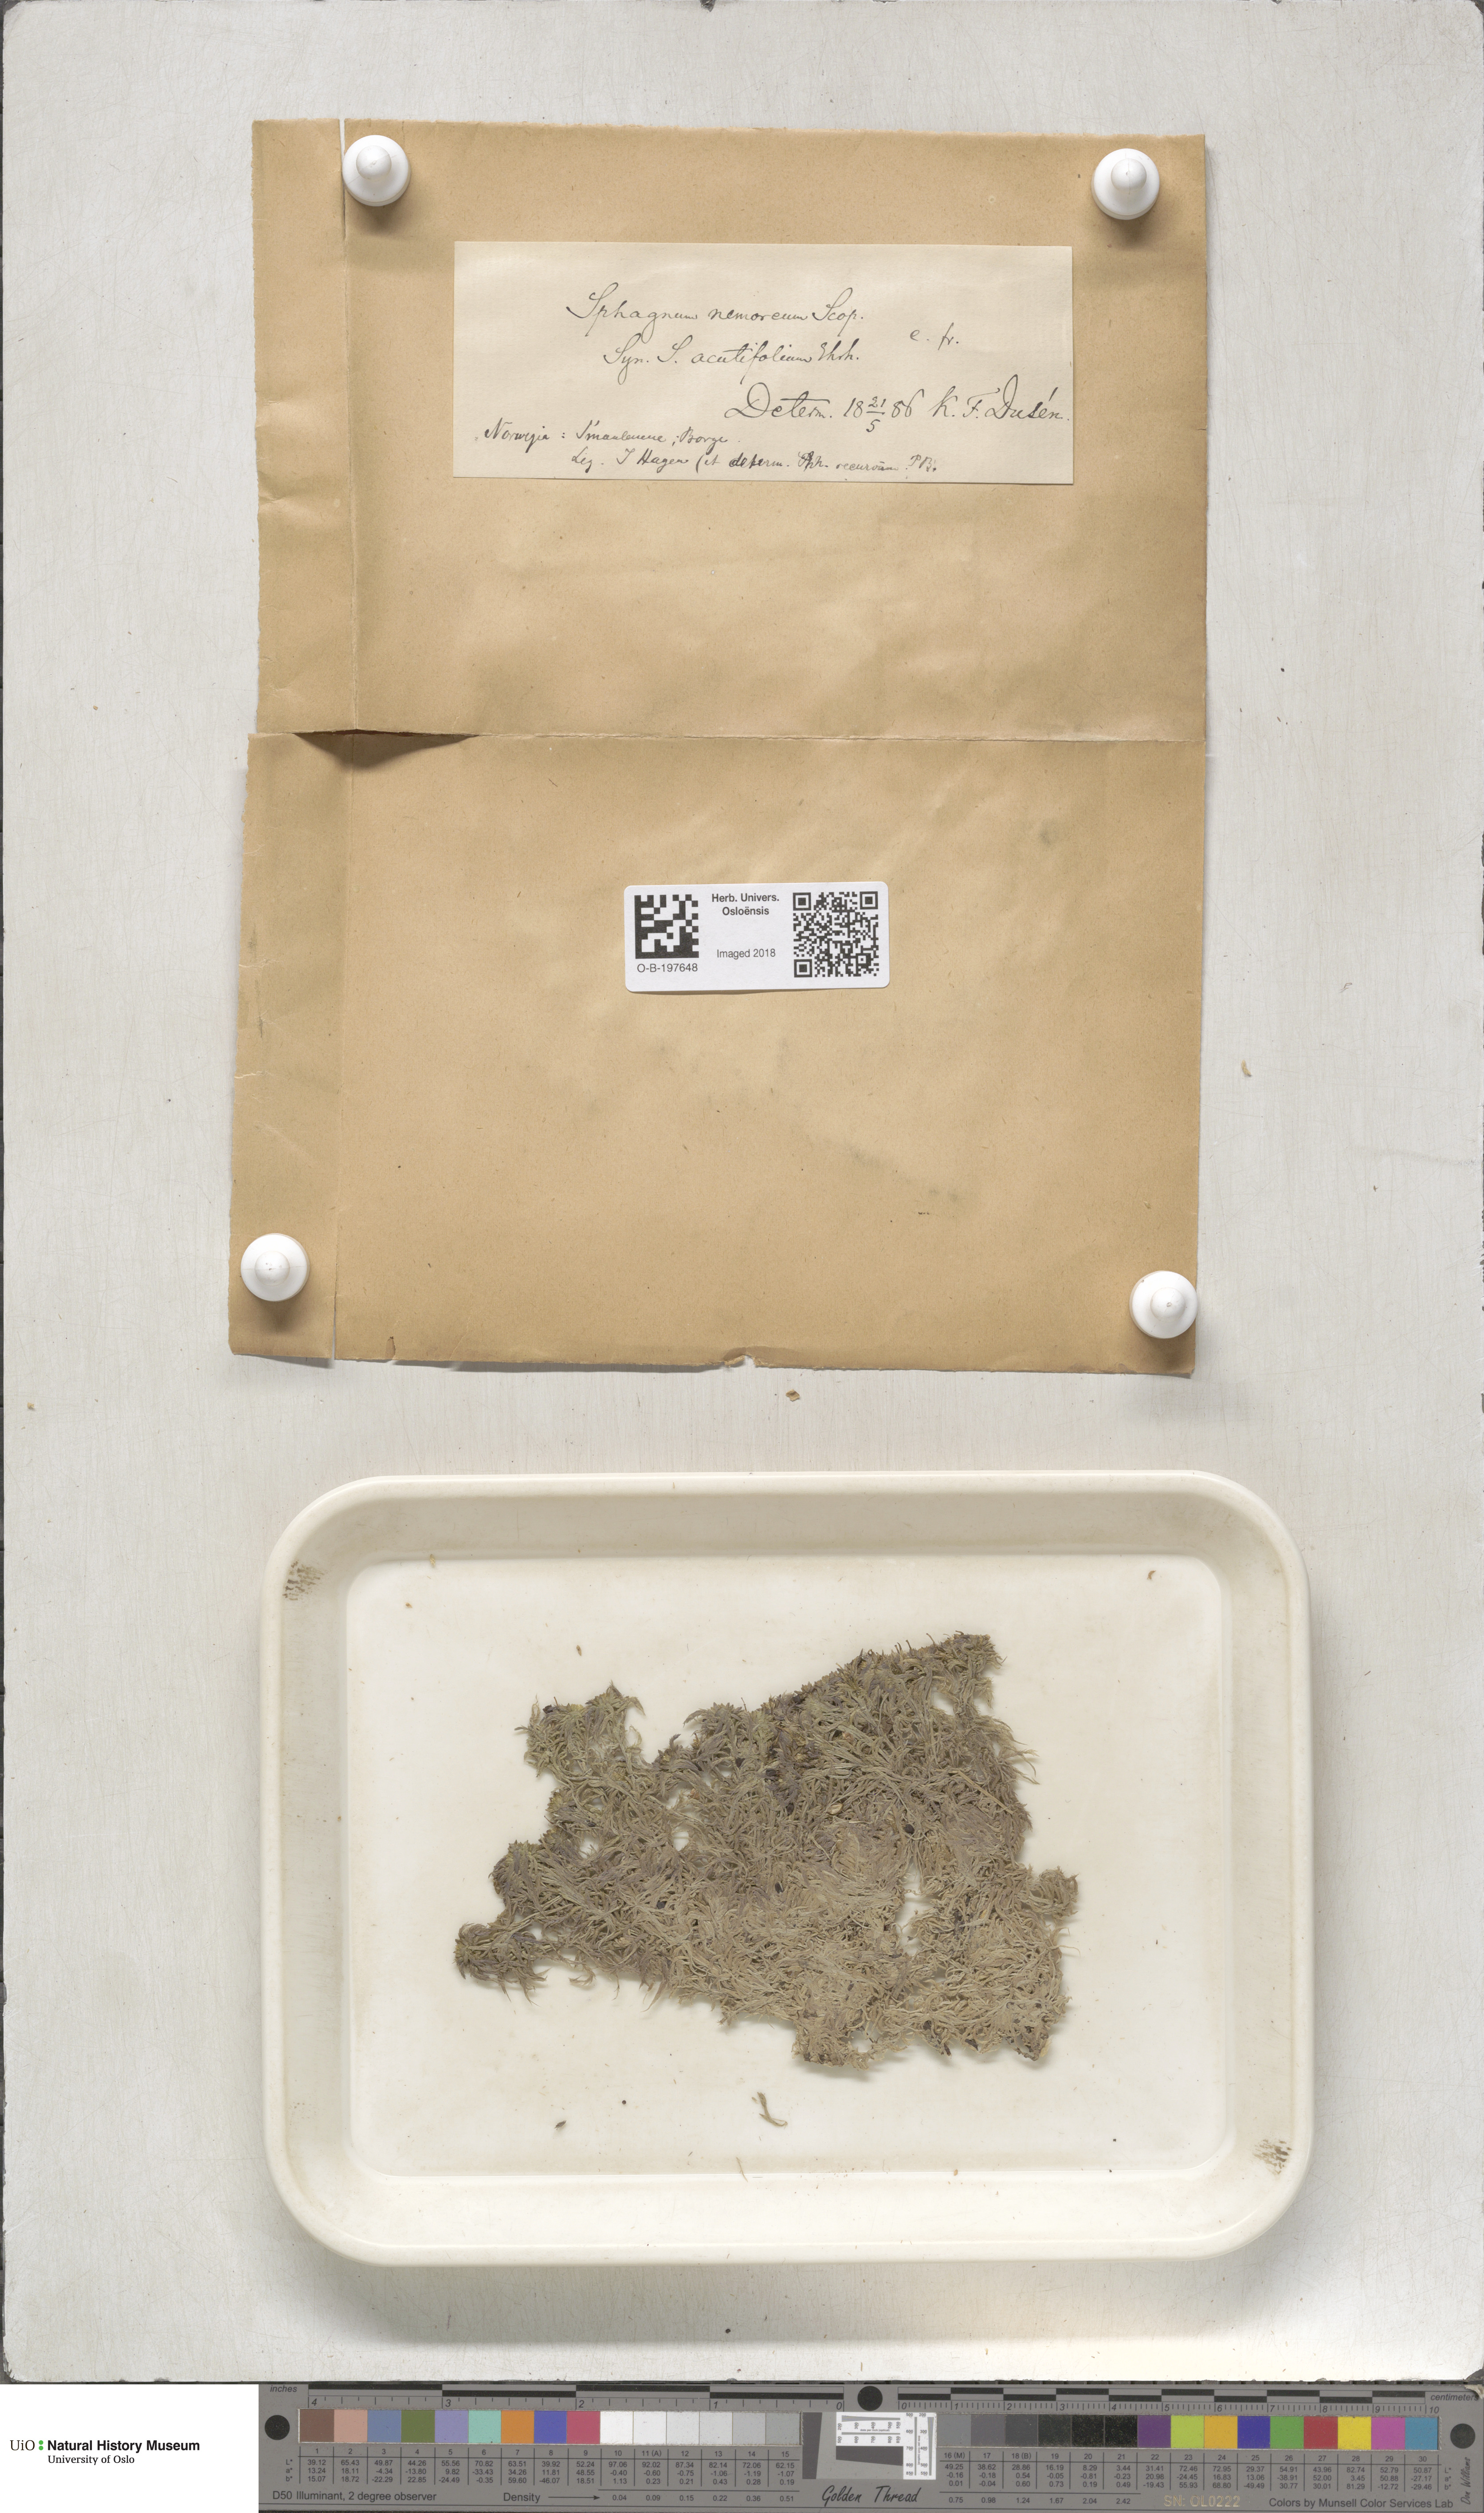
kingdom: Plantae
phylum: Bryophyta
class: Sphagnopsida
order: Sphagnales
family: Sphagnaceae
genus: Sphagnum
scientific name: Sphagnum capillifolium
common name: Small red peat moss
